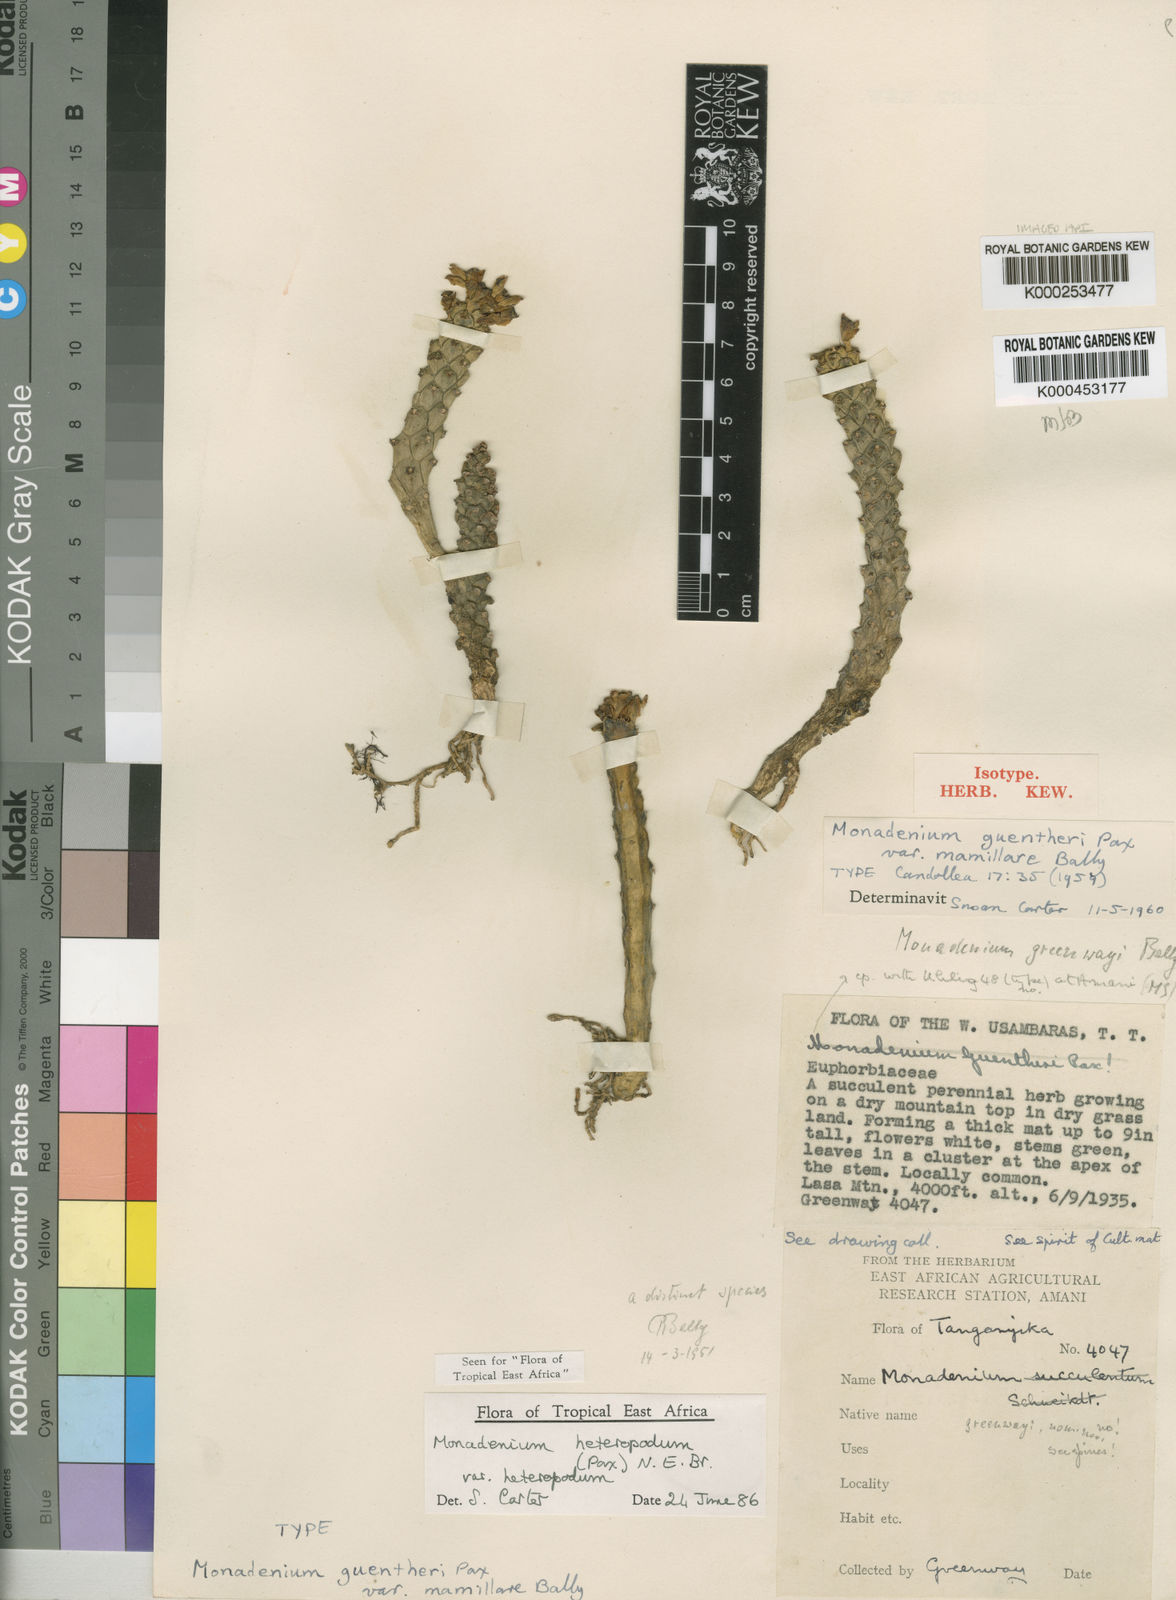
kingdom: Plantae
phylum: Tracheophyta
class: Magnoliopsida
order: Malpighiales
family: Euphorbiaceae
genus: Euphorbia
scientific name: Euphorbia heteropodum
